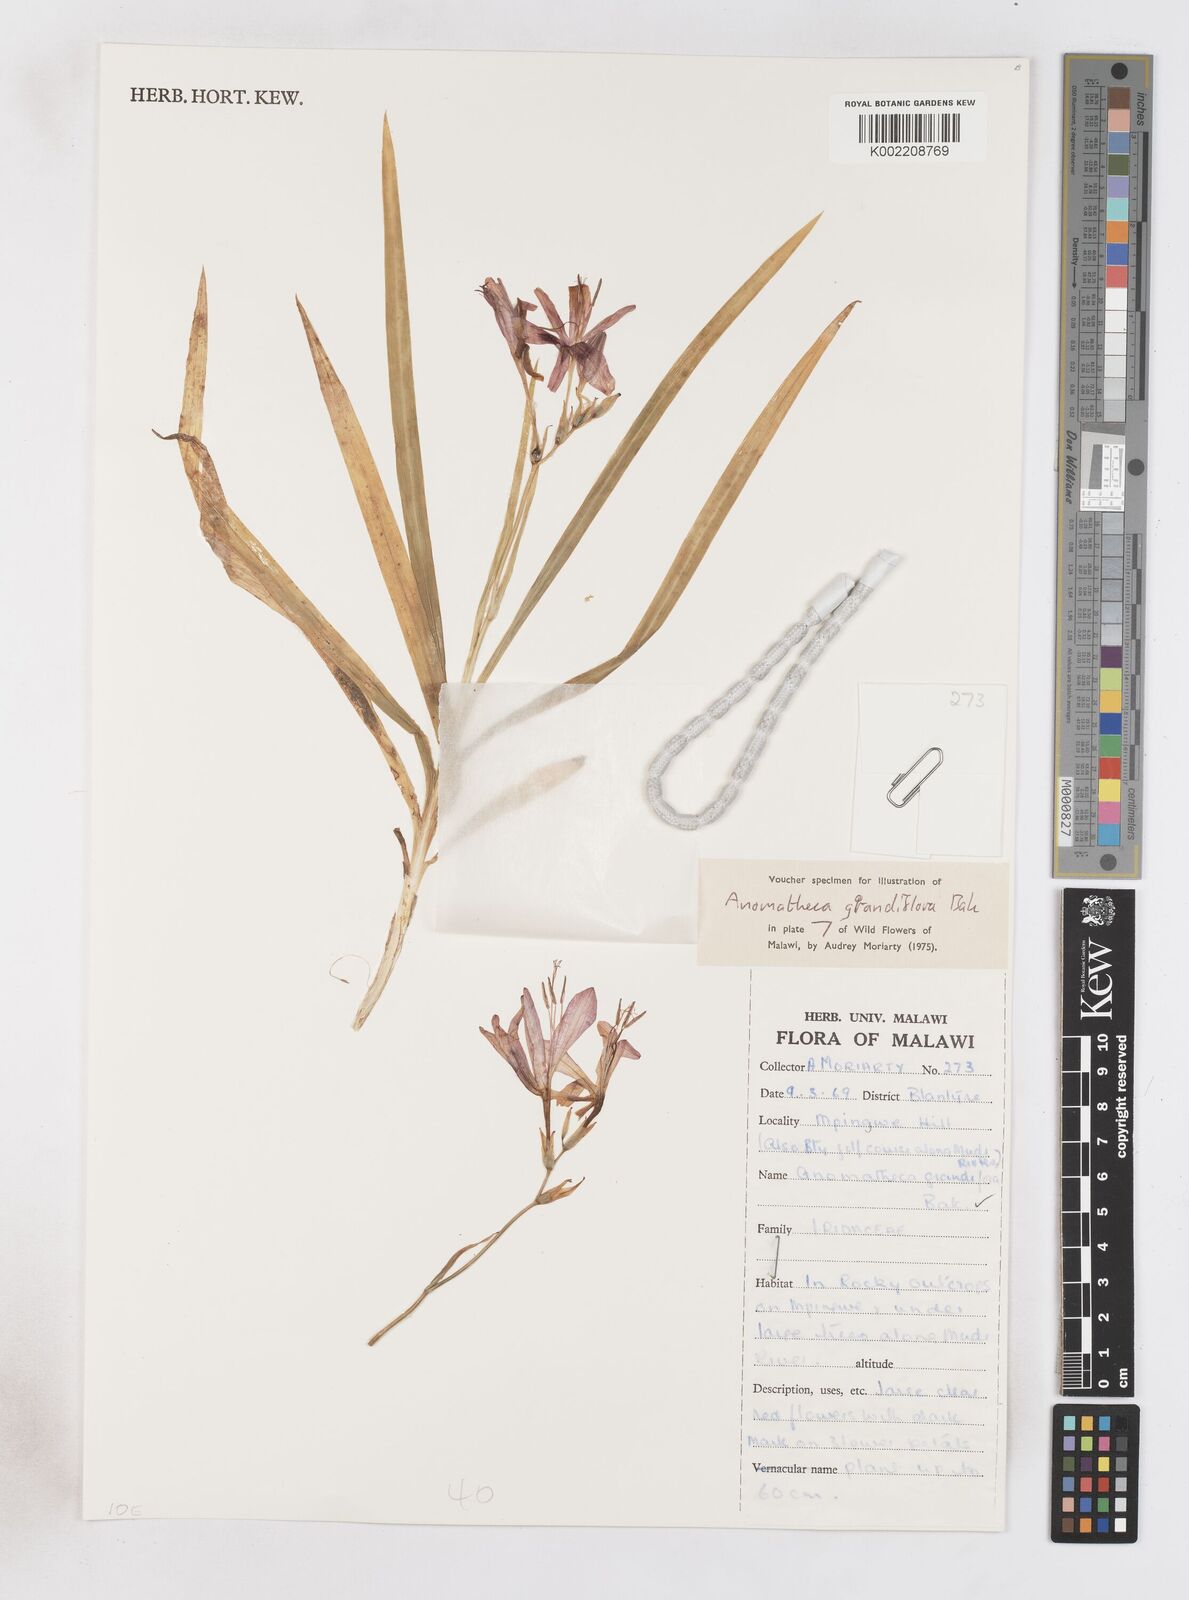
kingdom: Plantae
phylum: Tracheophyta
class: Liliopsida
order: Asparagales
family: Iridaceae
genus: Freesia
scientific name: Freesia grandiflora
